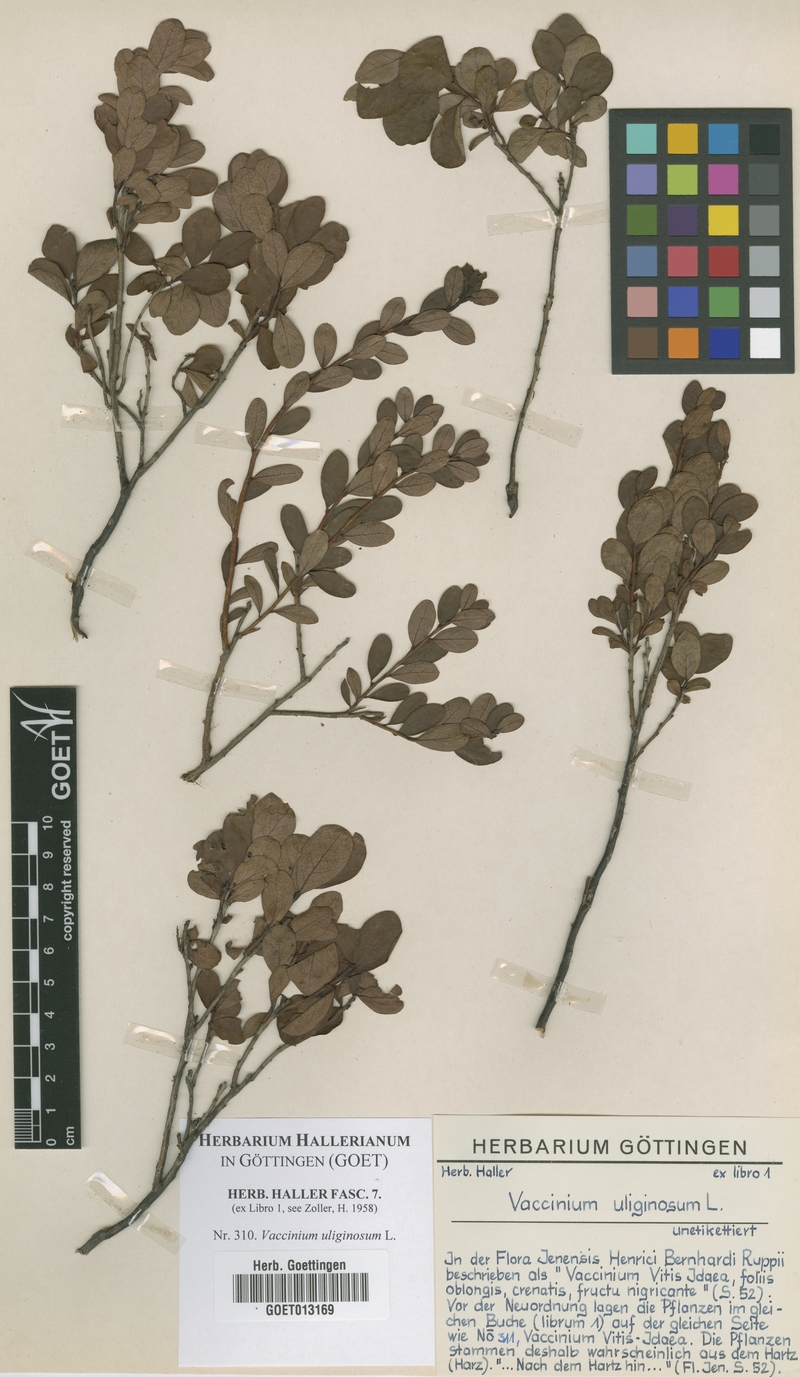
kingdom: Plantae
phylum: Tracheophyta
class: Magnoliopsida
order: Ericales
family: Ericaceae
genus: Vaccinium
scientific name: Vaccinium uliginosum
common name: Bog bilberry
